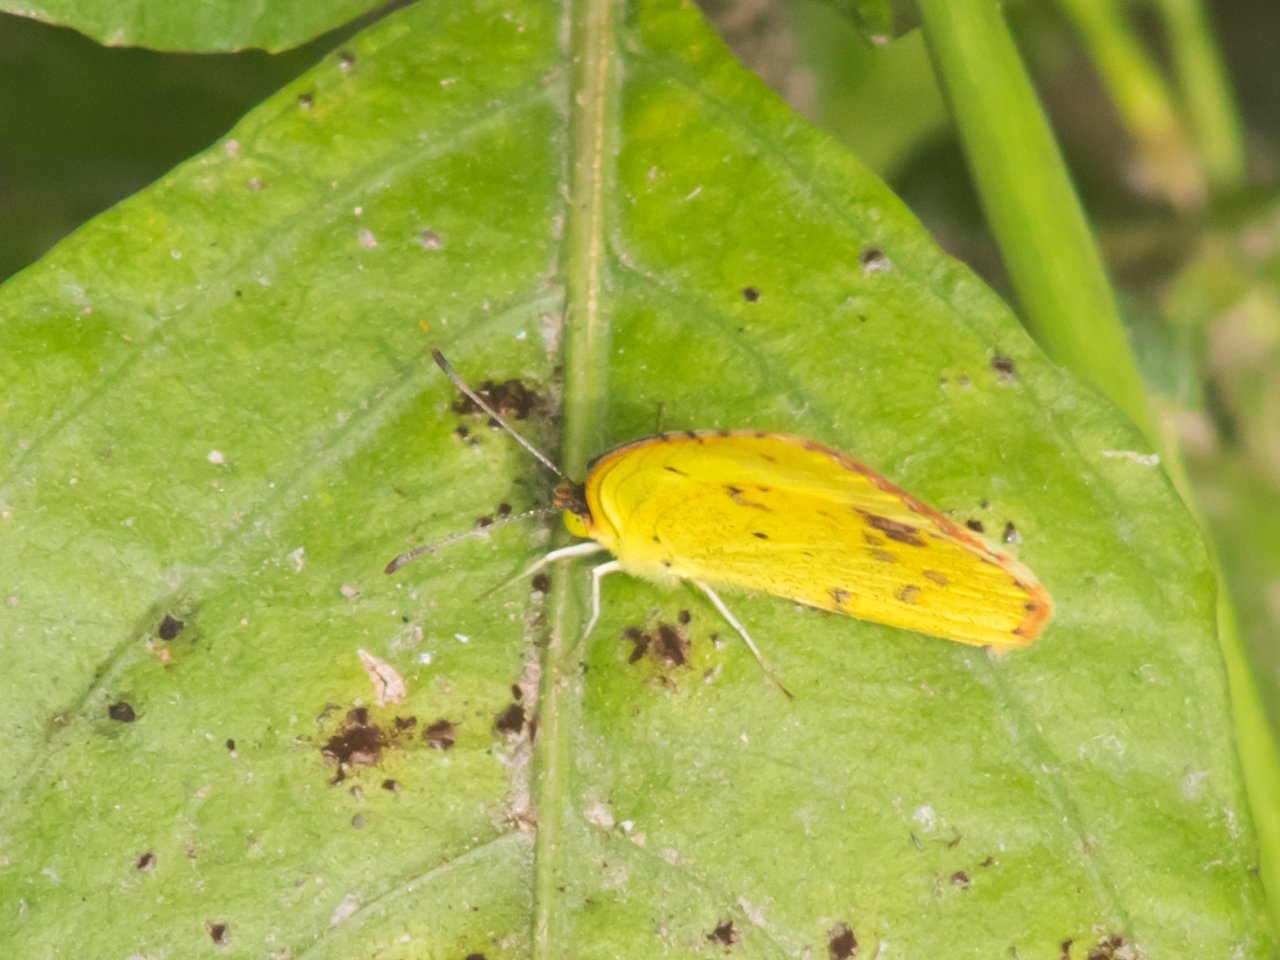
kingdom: Animalia
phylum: Arthropoda
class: Insecta
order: Lepidoptera
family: Pieridae
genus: Pyrisitia
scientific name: Pyrisitia lisa
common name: Little Yellow
